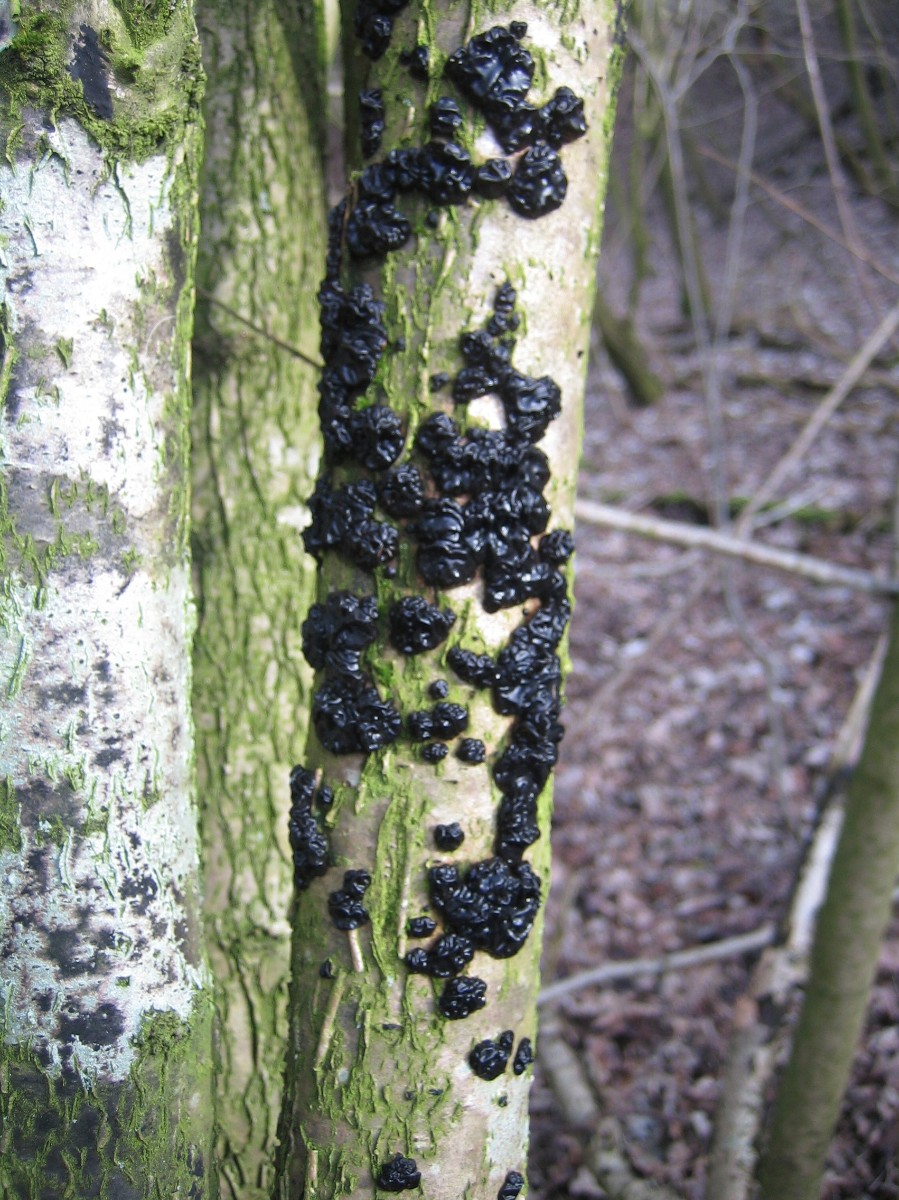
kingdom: Fungi
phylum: Basidiomycota
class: Agaricomycetes
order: Auriculariales
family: Auriculariaceae
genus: Exidia
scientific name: Exidia nigricans
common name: almindelig bævretop
